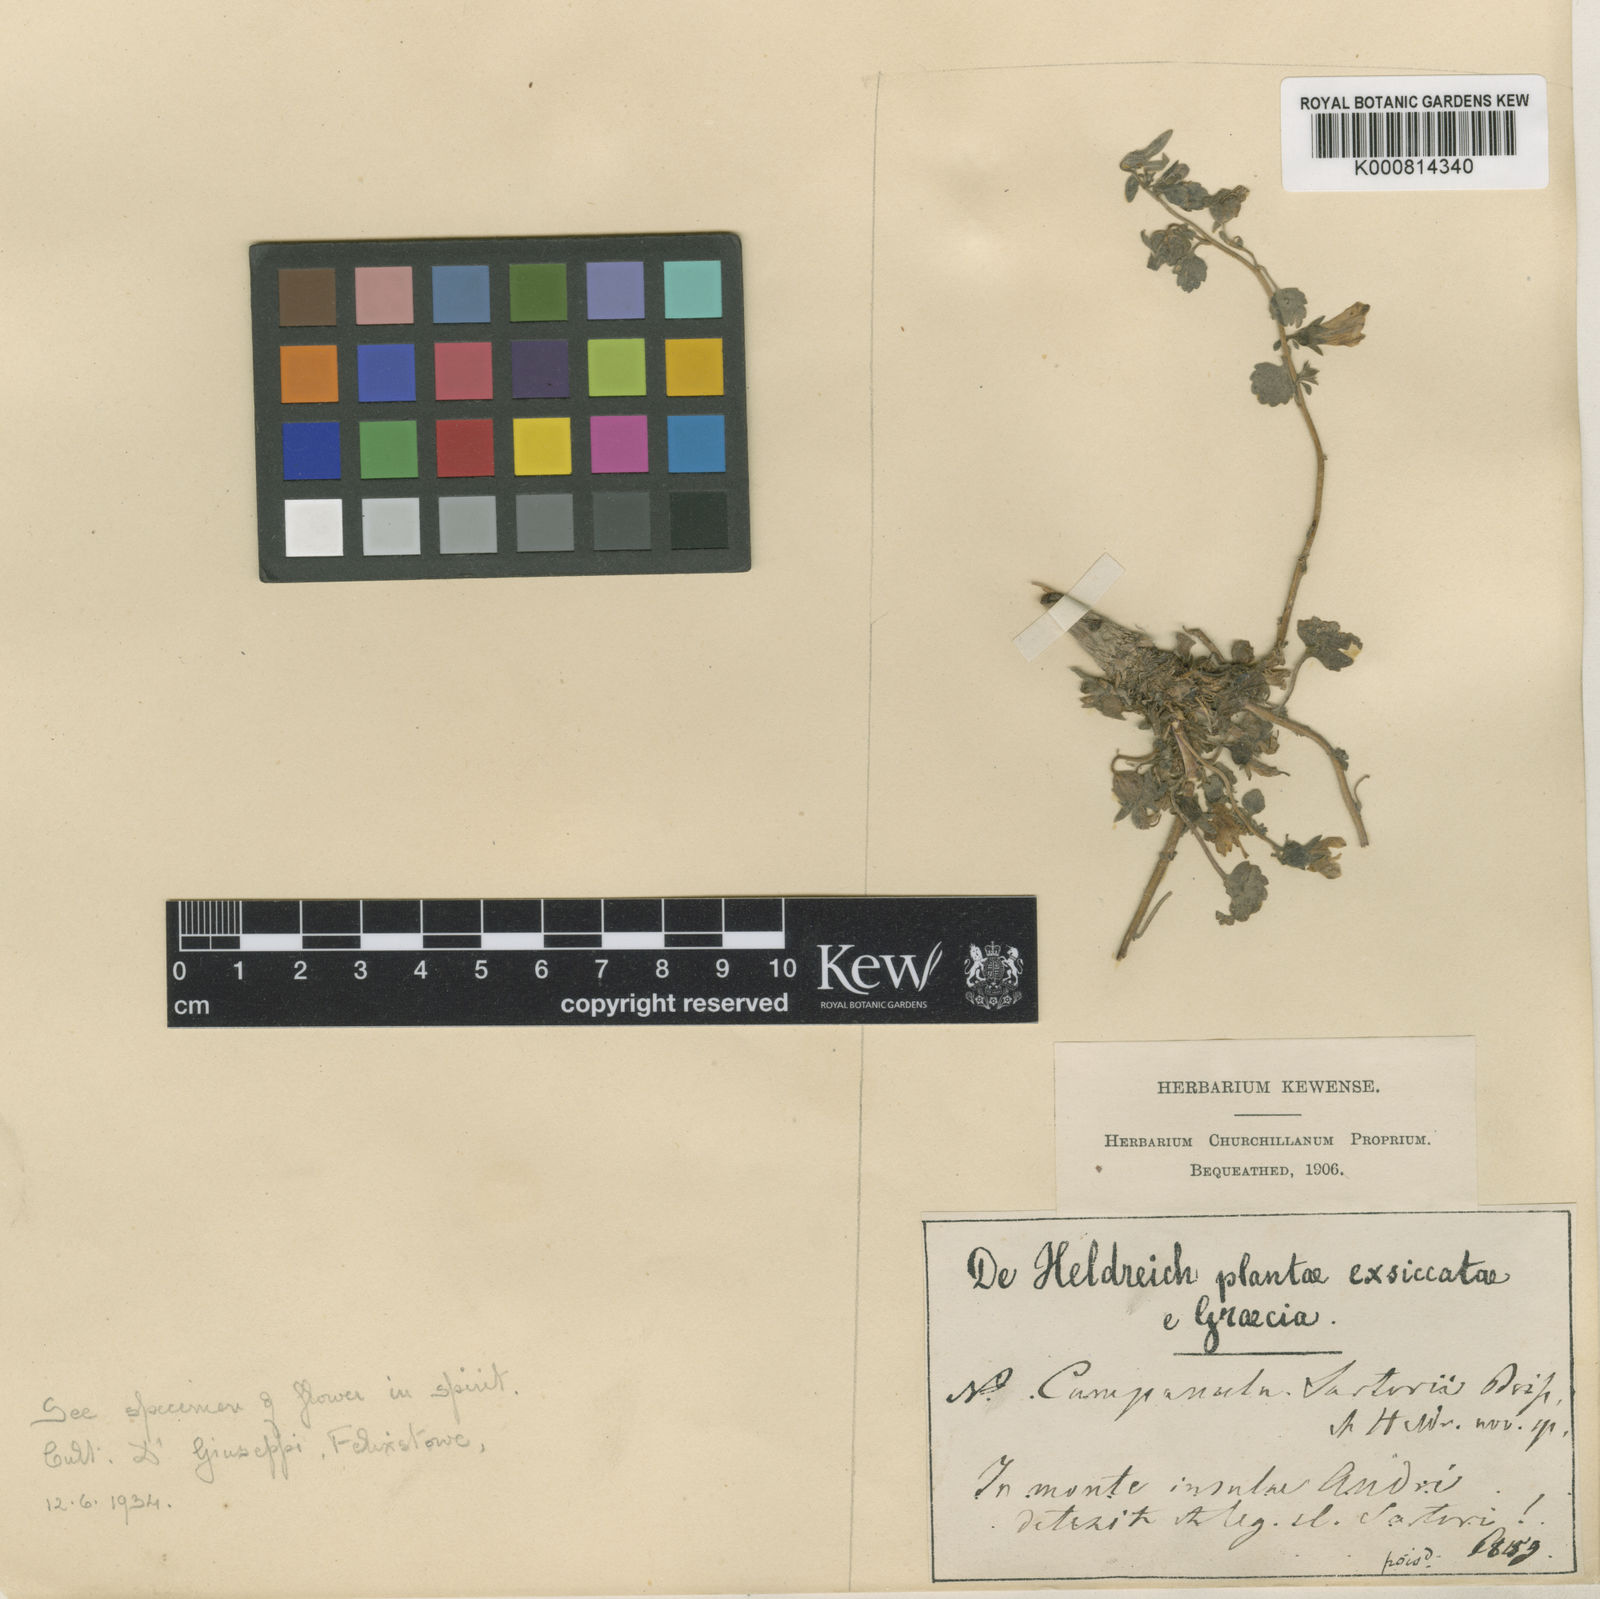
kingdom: Plantae
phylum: Tracheophyta
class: Magnoliopsida
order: Asterales
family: Campanulaceae
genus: Campanula
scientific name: Campanula sartorii
